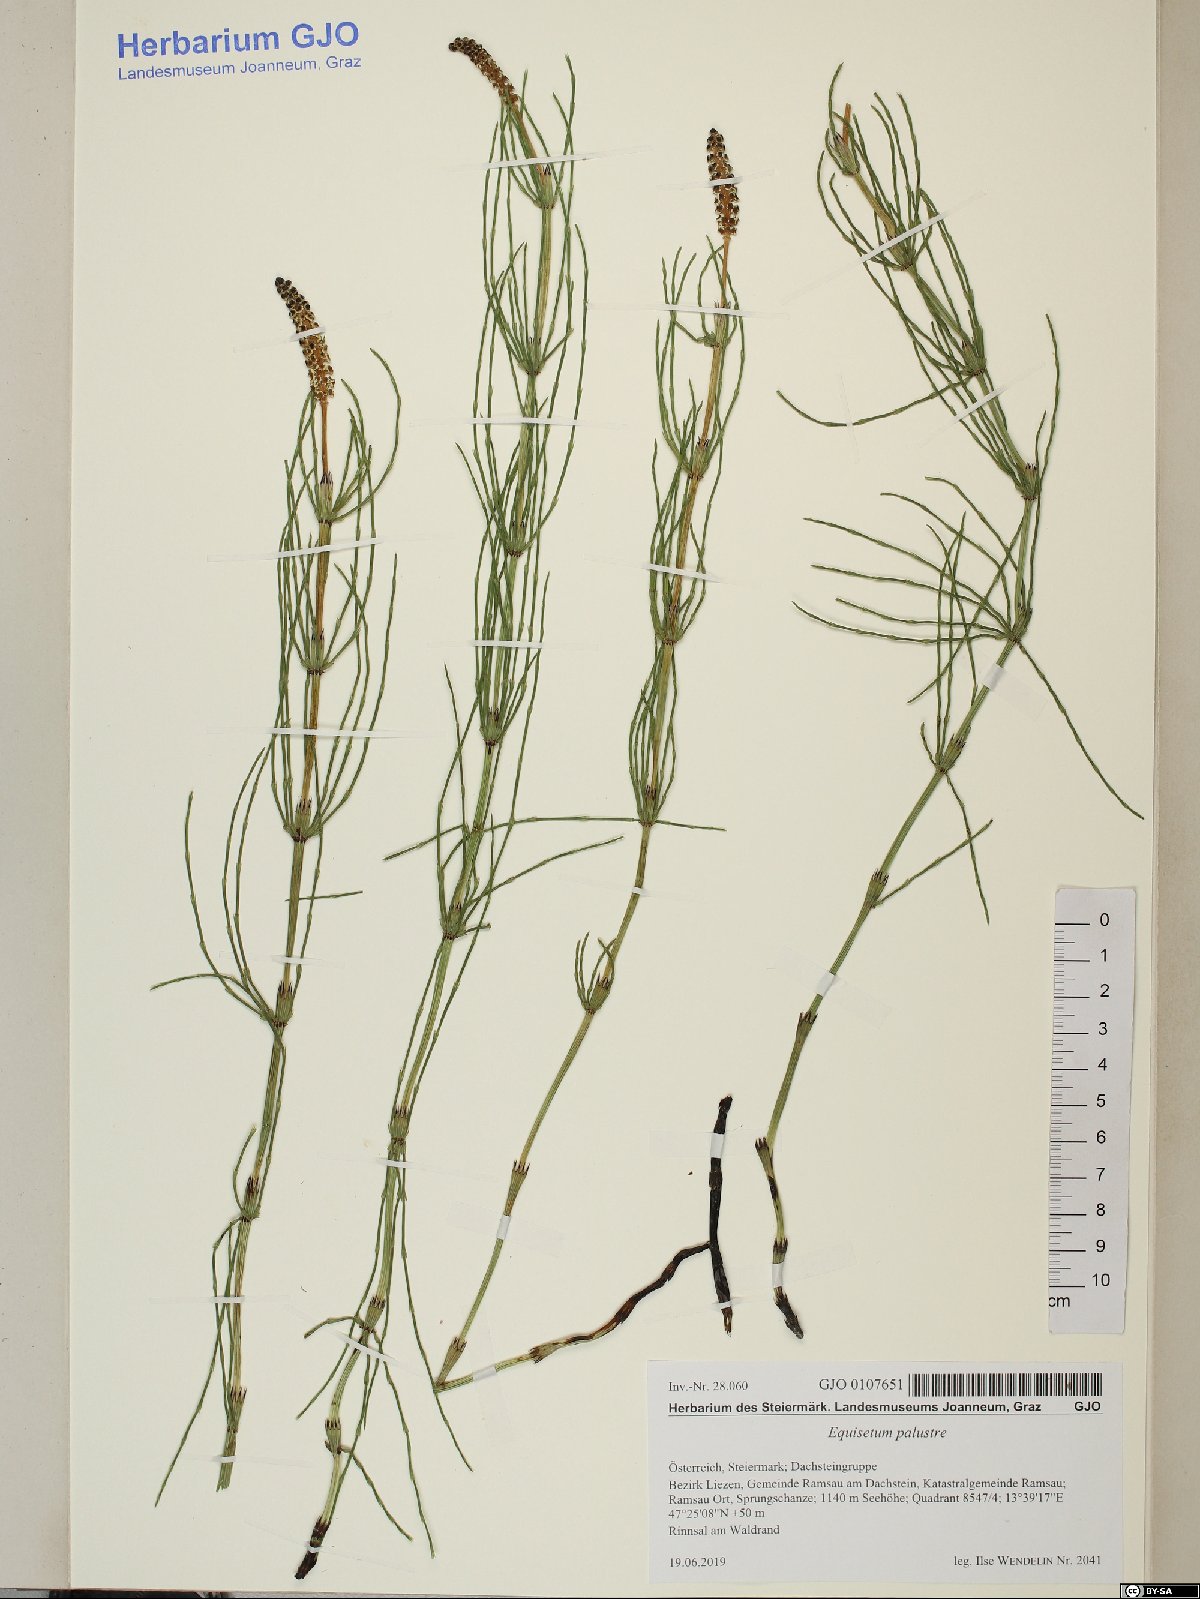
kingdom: Plantae
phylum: Tracheophyta
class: Polypodiopsida
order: Equisetales
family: Equisetaceae
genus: Equisetum
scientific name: Equisetum palustre
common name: Marsh horsetail
